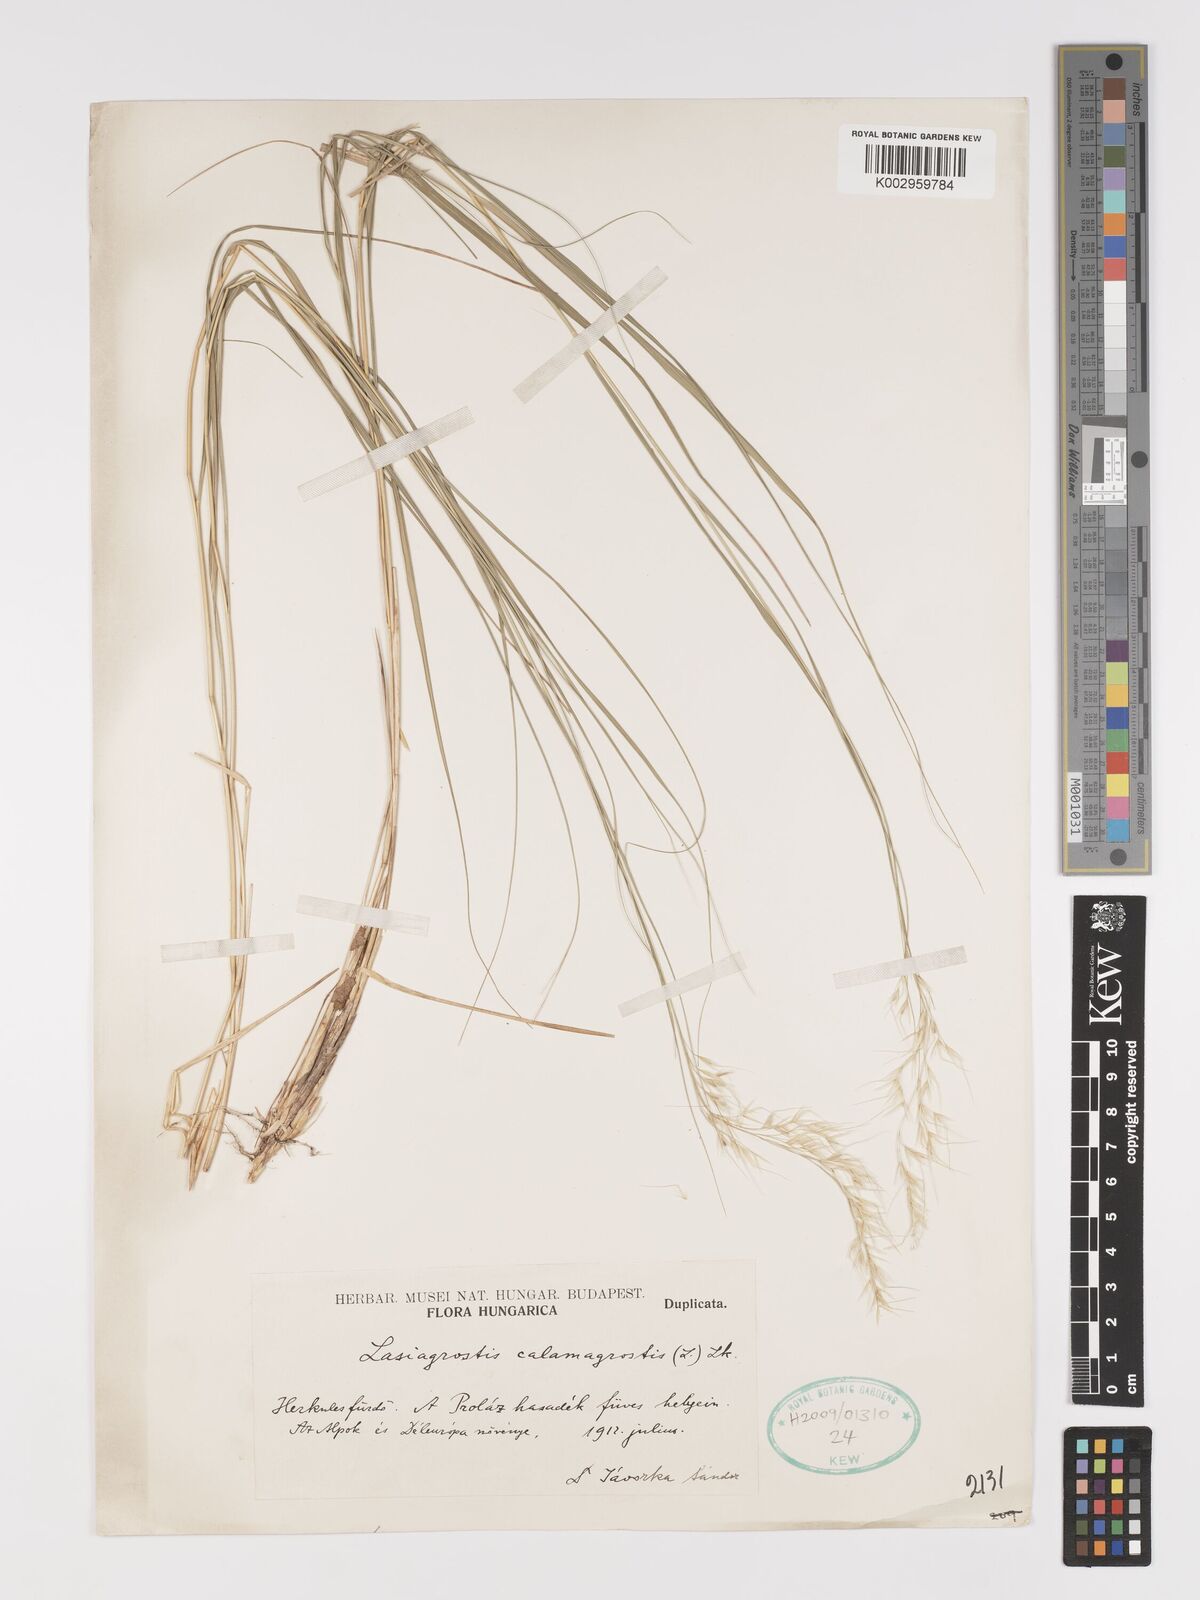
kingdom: Plantae
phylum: Tracheophyta
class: Liliopsida
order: Poales
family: Poaceae
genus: Achnatherum
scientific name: Achnatherum calamagrostis
